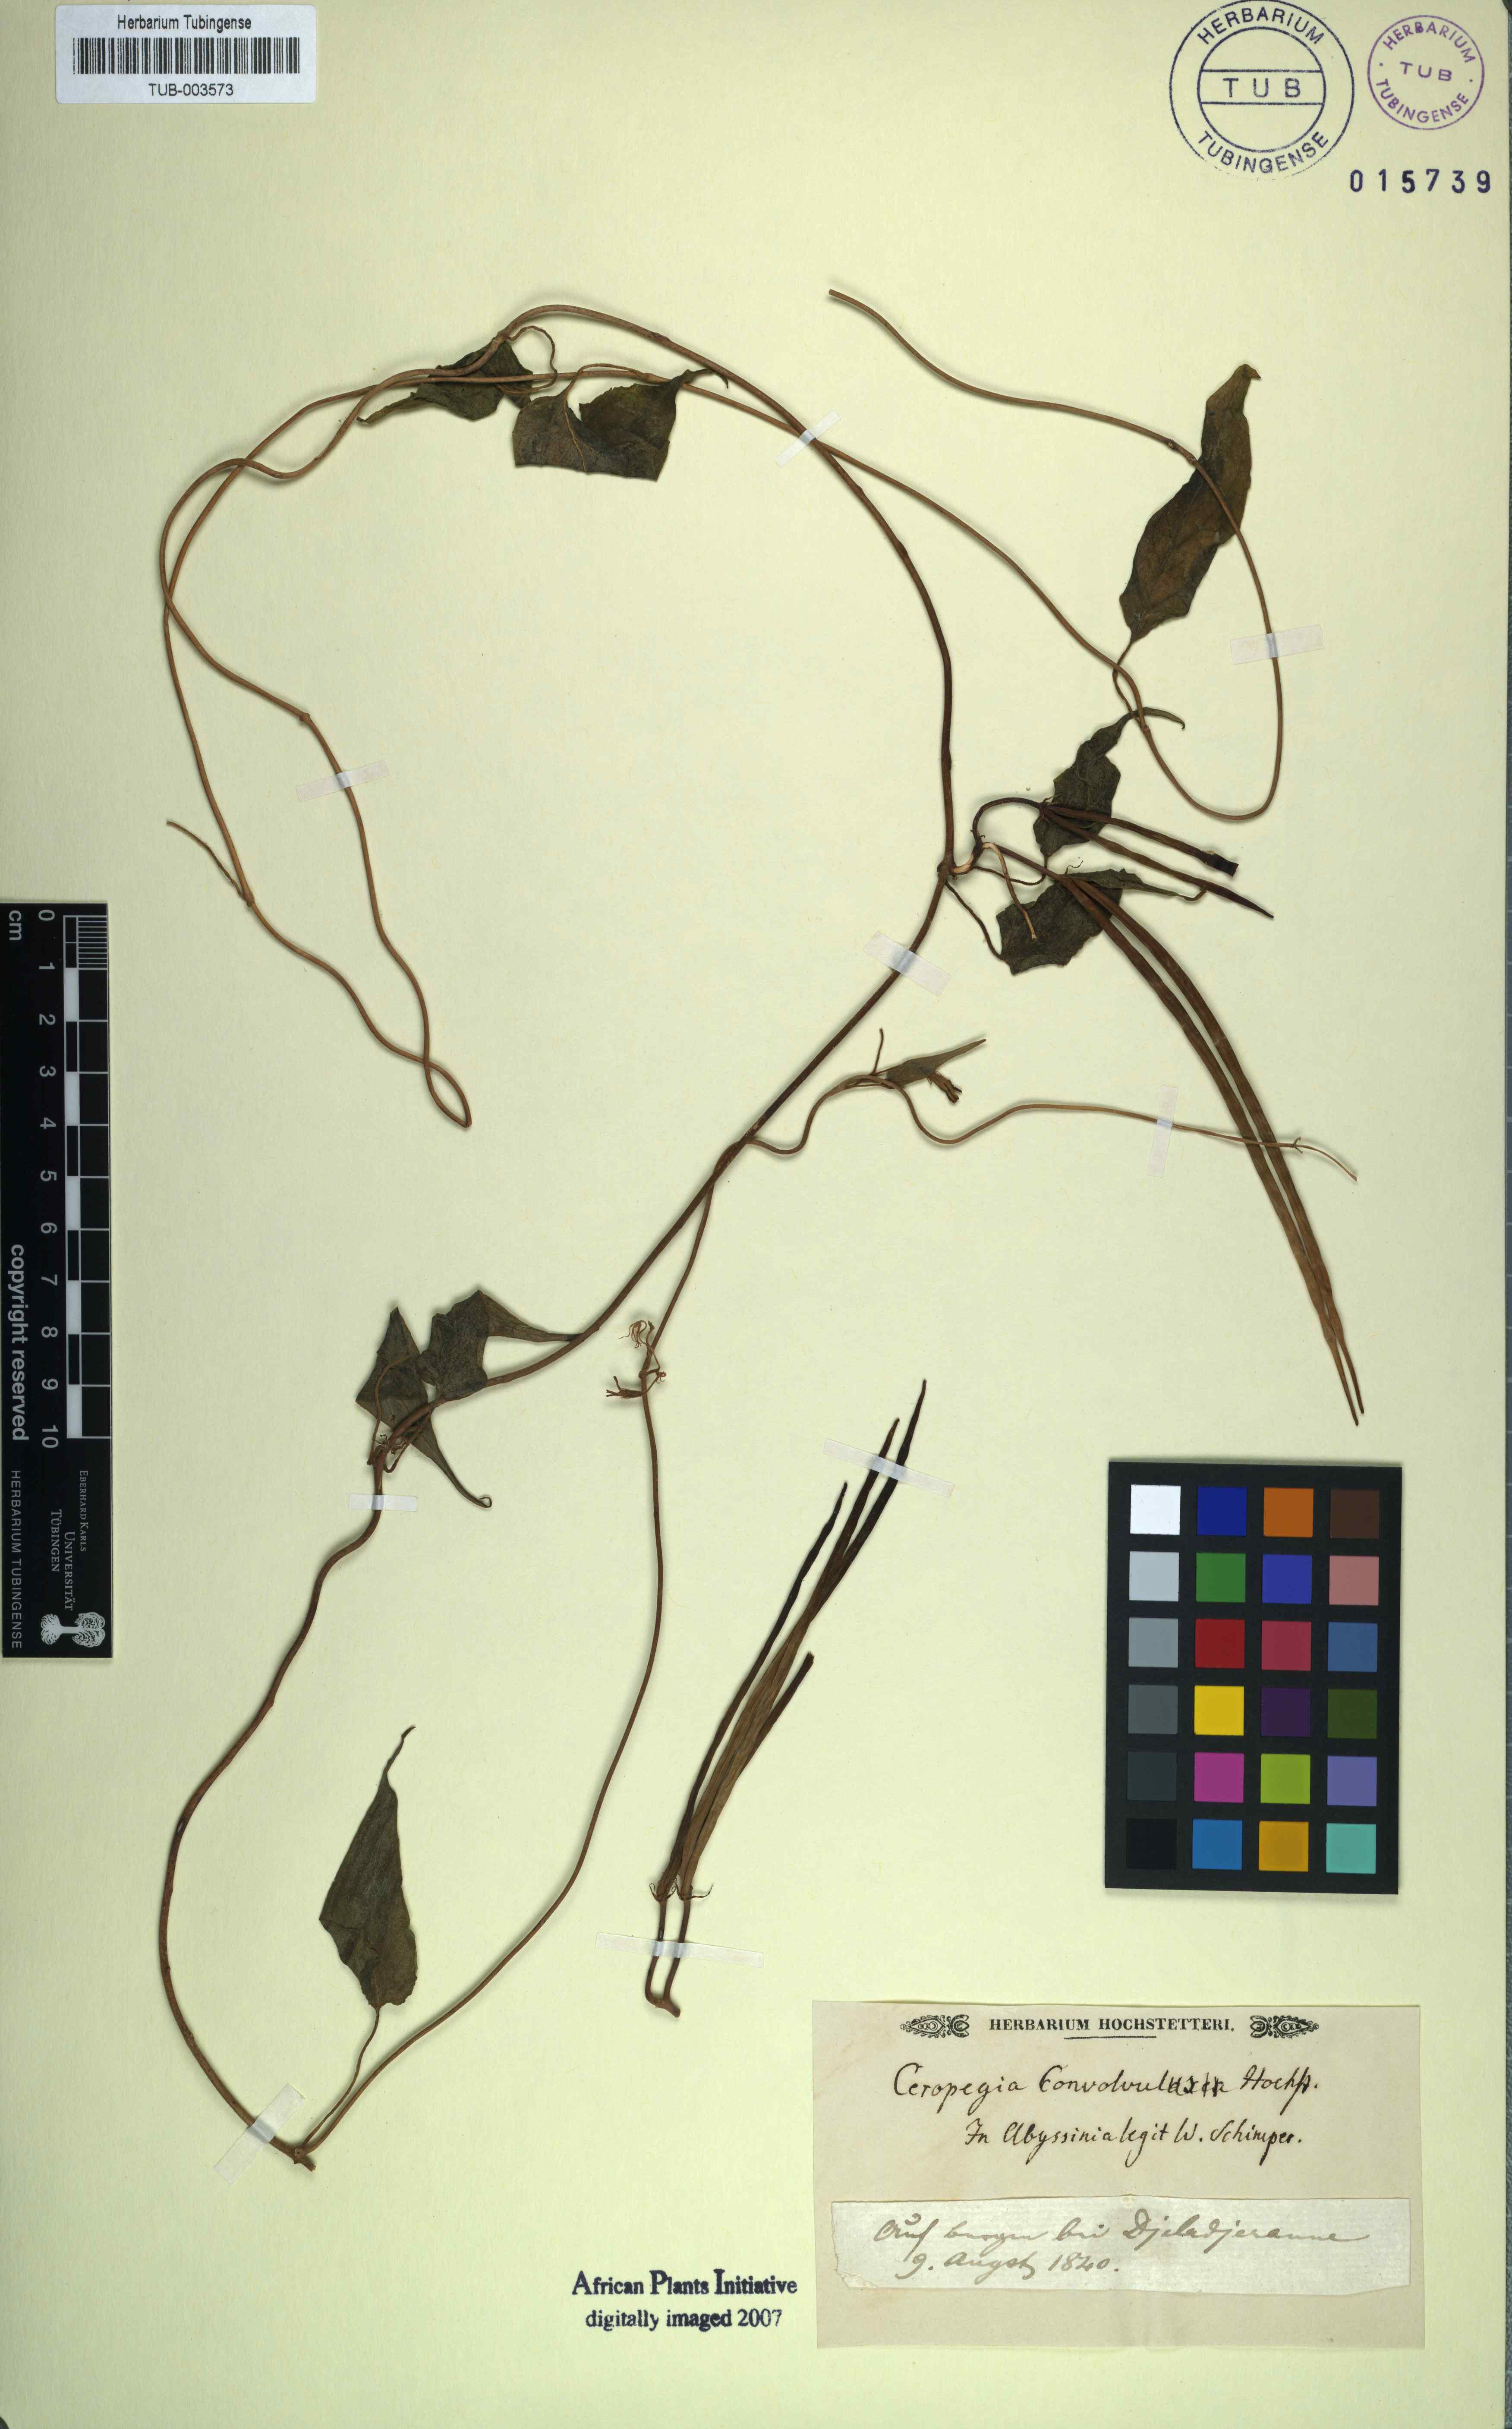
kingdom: Plantae
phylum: Tracheophyta
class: Magnoliopsida
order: Gentianales
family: Apocynaceae
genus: Ceropegia
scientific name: Ceropegia ringens
